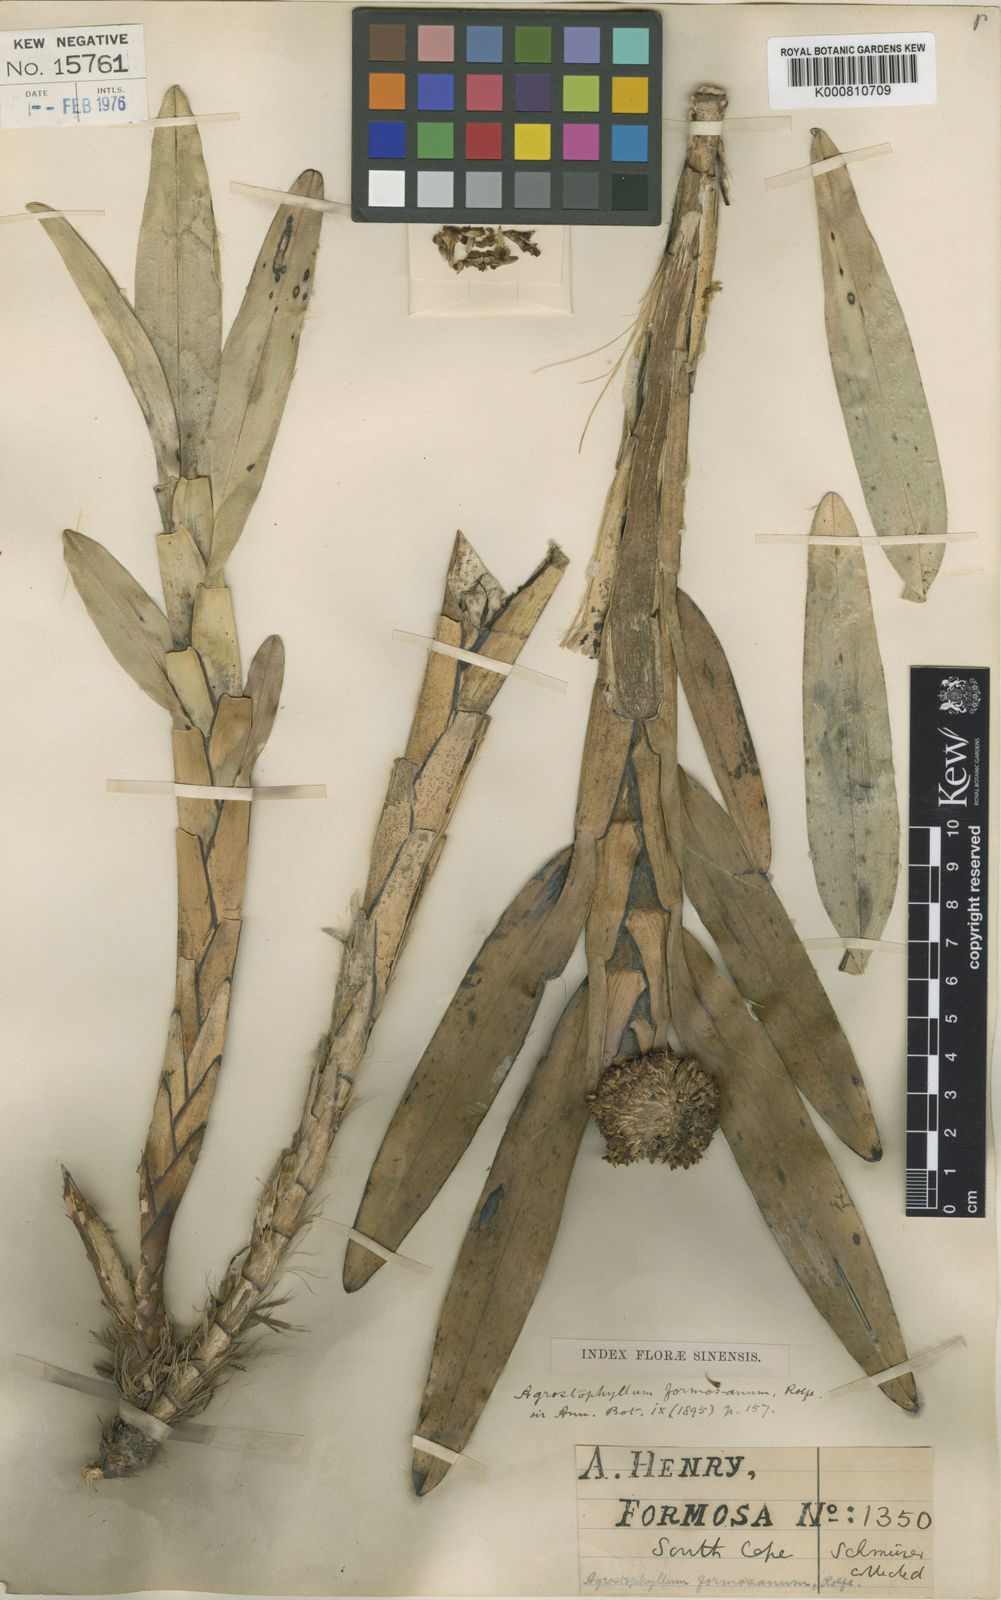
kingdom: Plantae
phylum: Tracheophyta
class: Liliopsida
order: Asparagales
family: Orchidaceae
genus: Agrostophyllum
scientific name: Agrostophyllum formosanum
